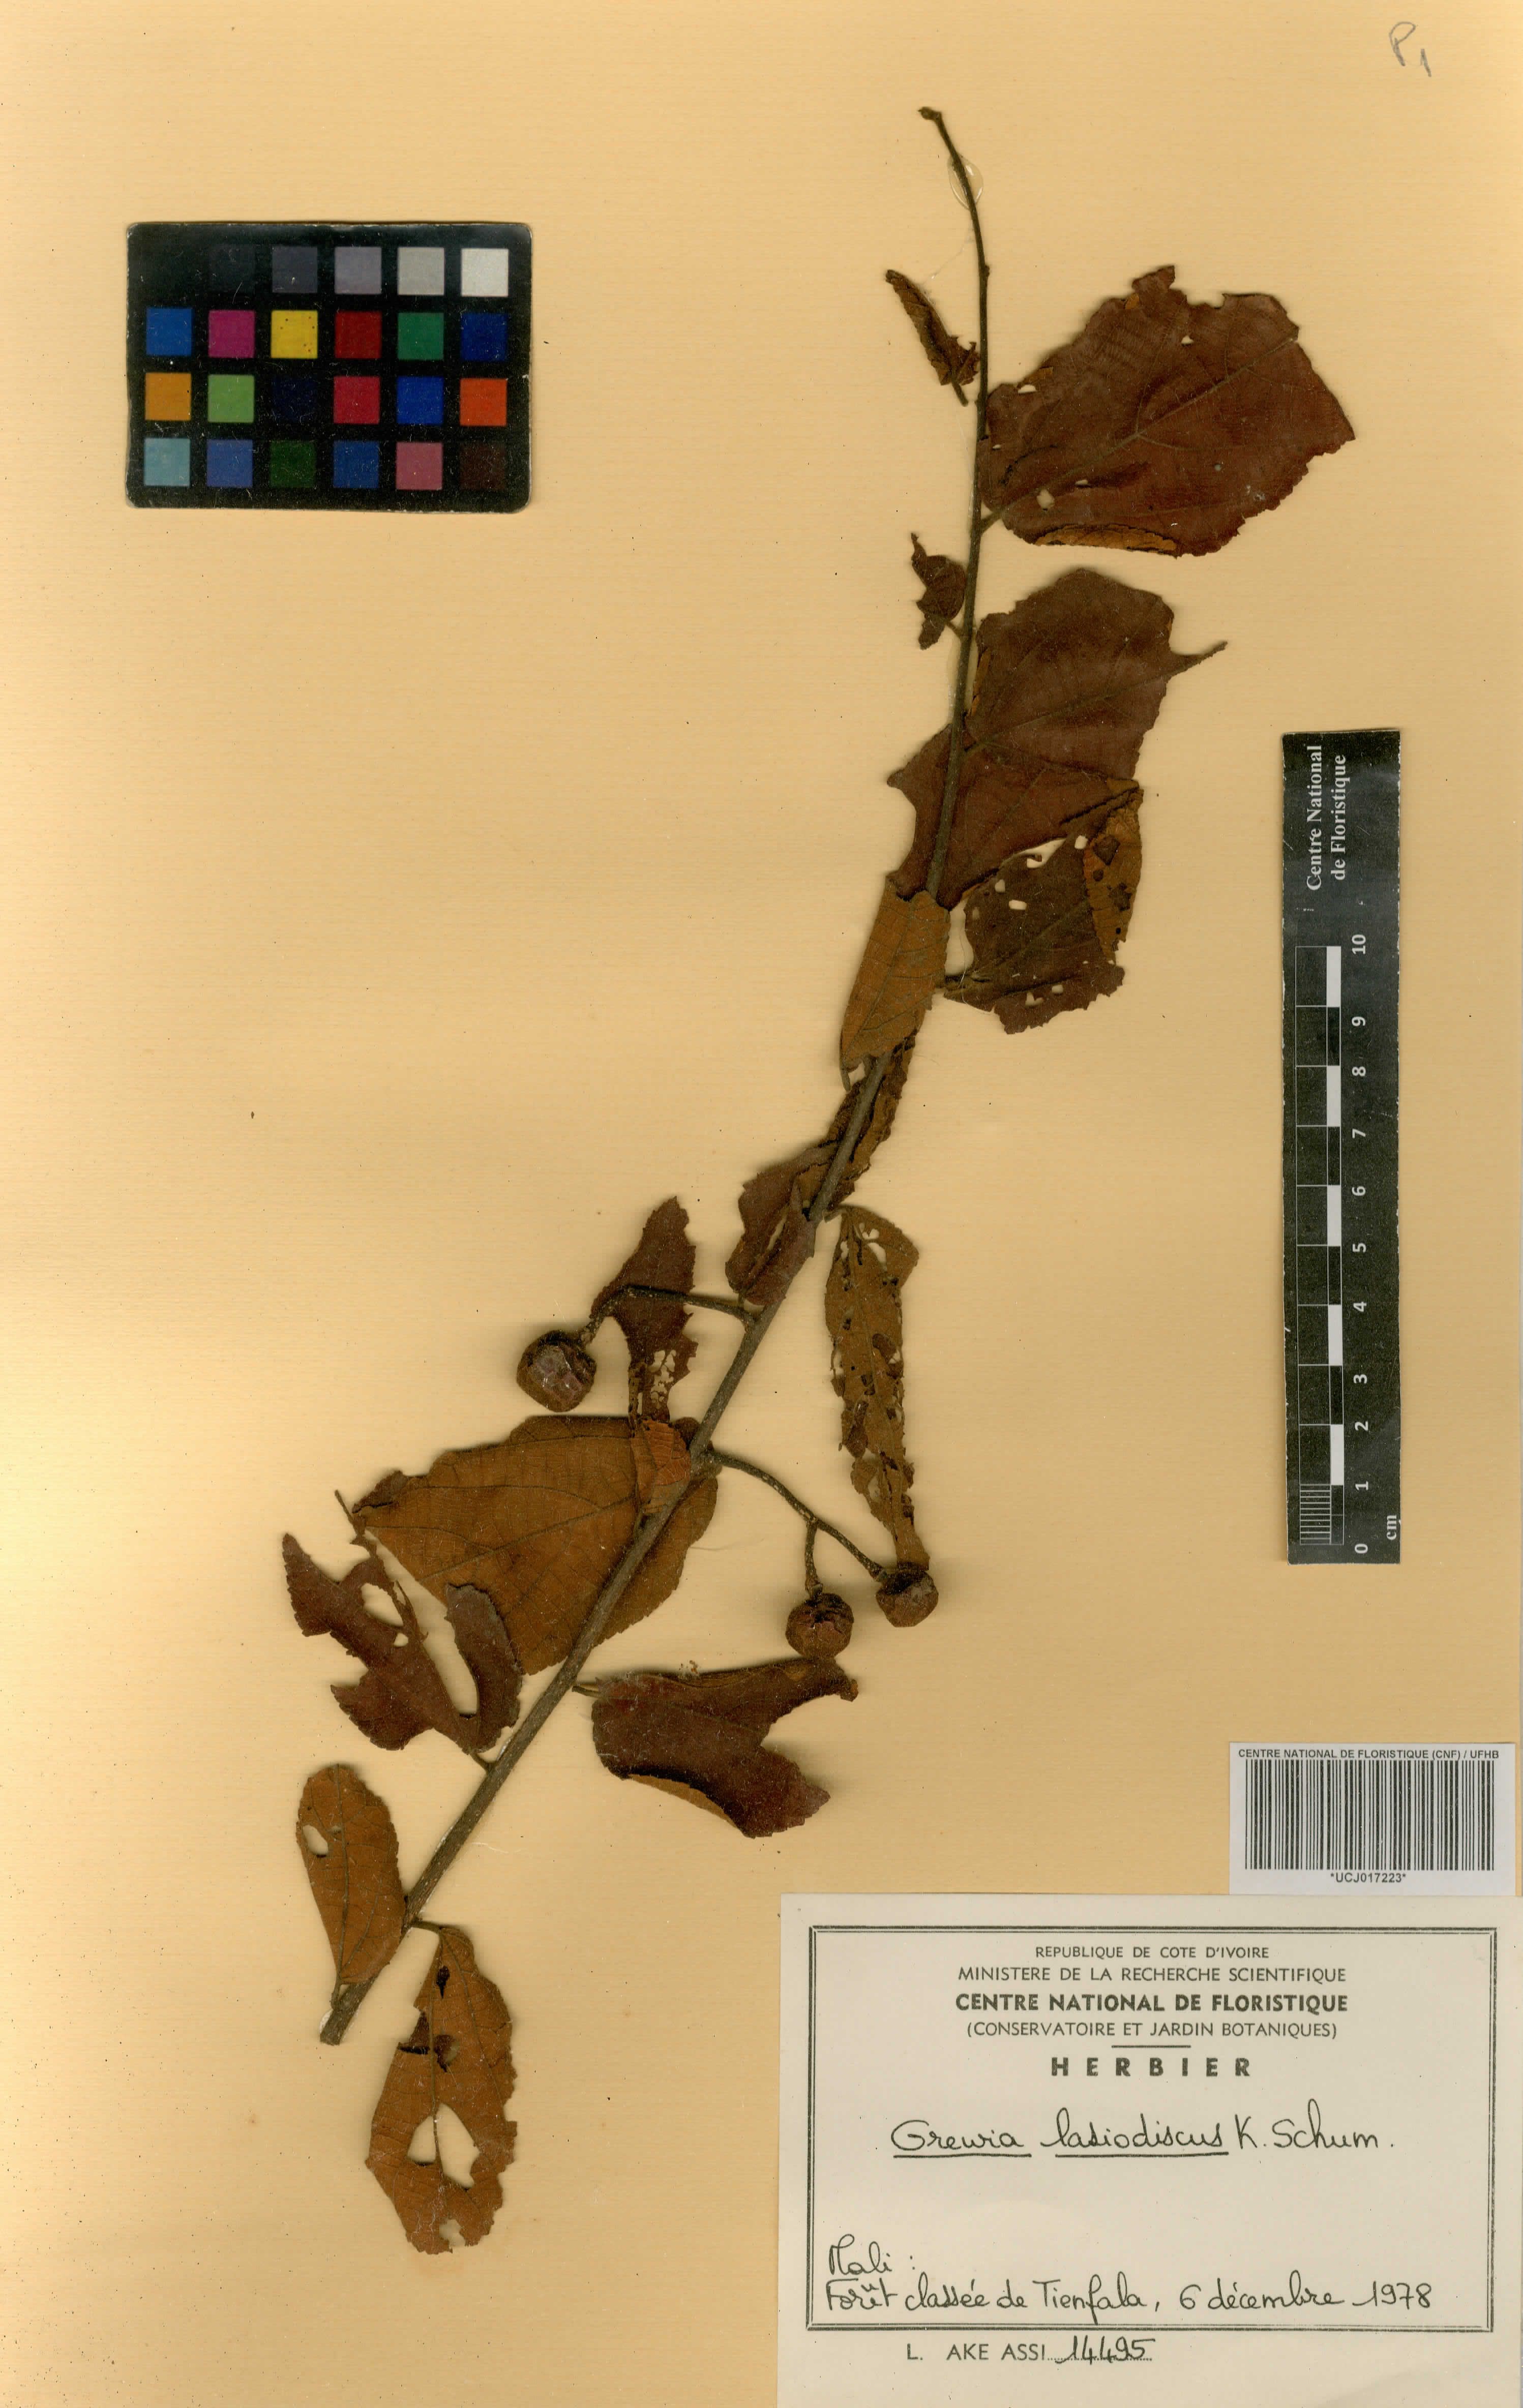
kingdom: Plantae
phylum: Tracheophyta
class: Magnoliopsida
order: Malvales
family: Malvaceae
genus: Grewia
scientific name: Grewia lasiodiscus
